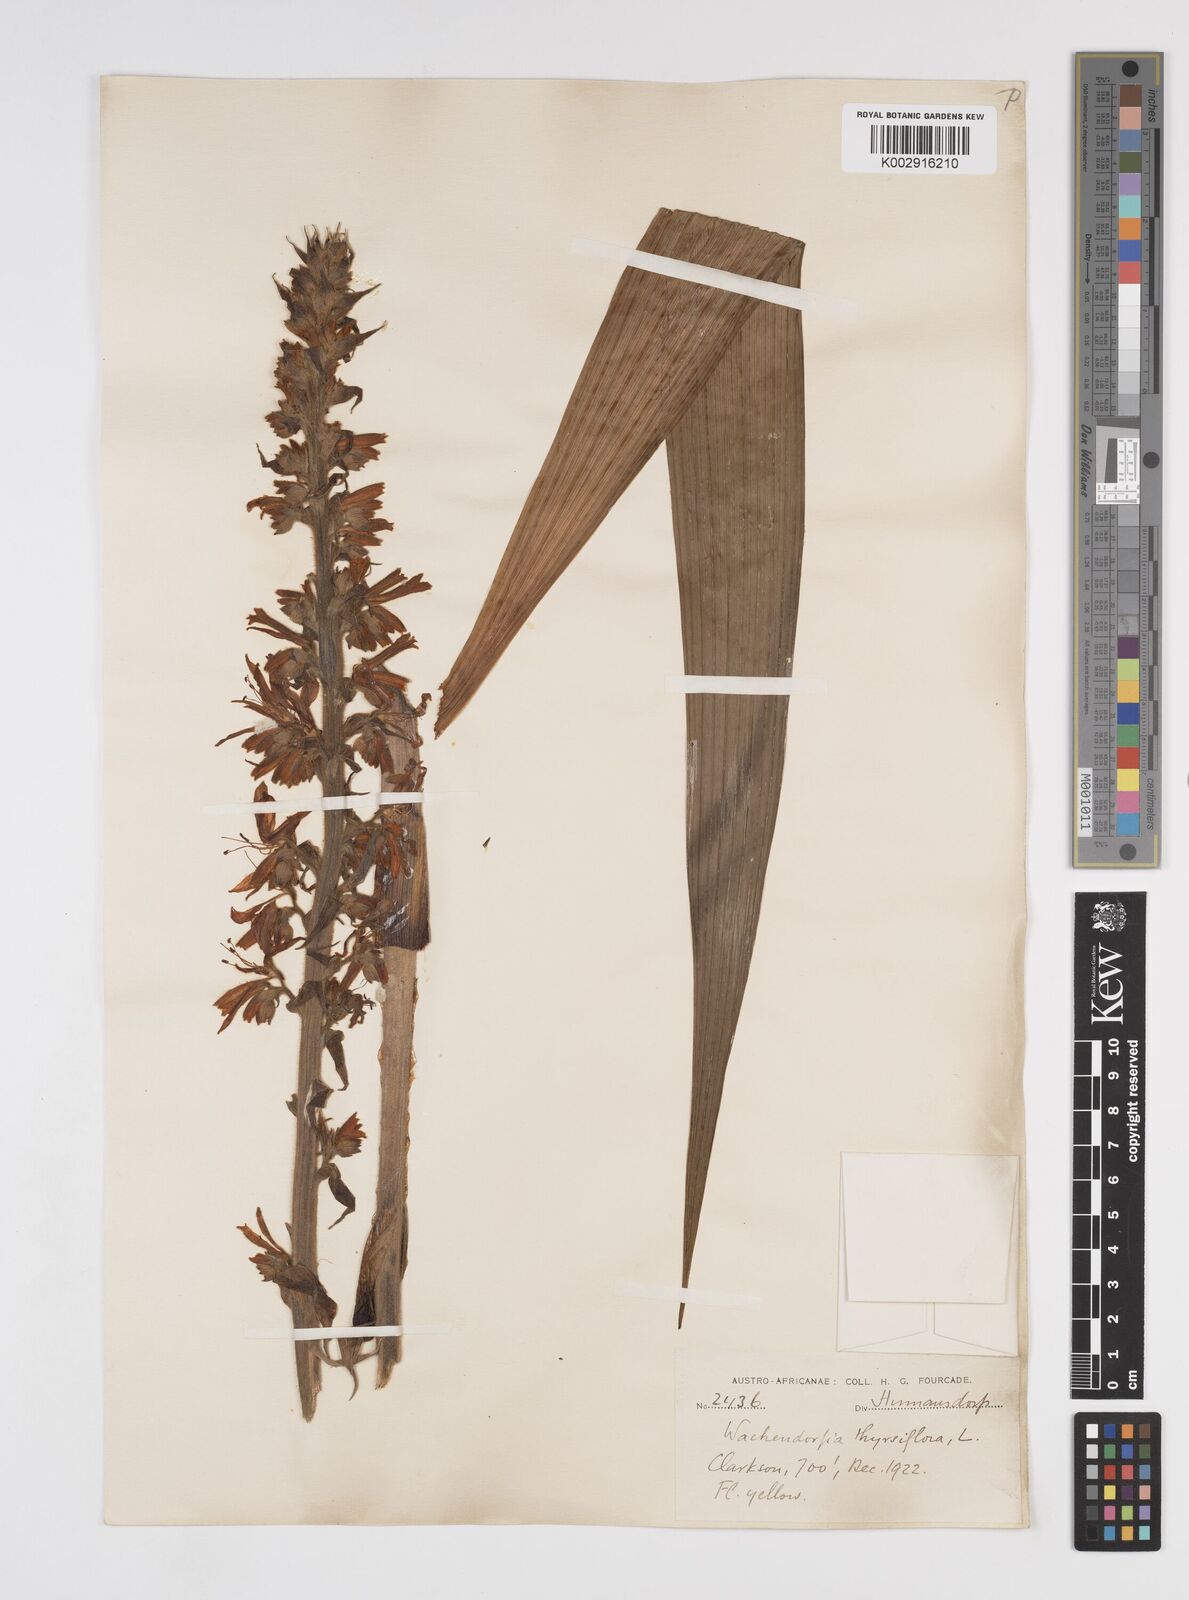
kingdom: Plantae
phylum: Tracheophyta
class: Liliopsida
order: Commelinales
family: Haemodoraceae
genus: Wachendorfia
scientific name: Wachendorfia thyrsiflora
